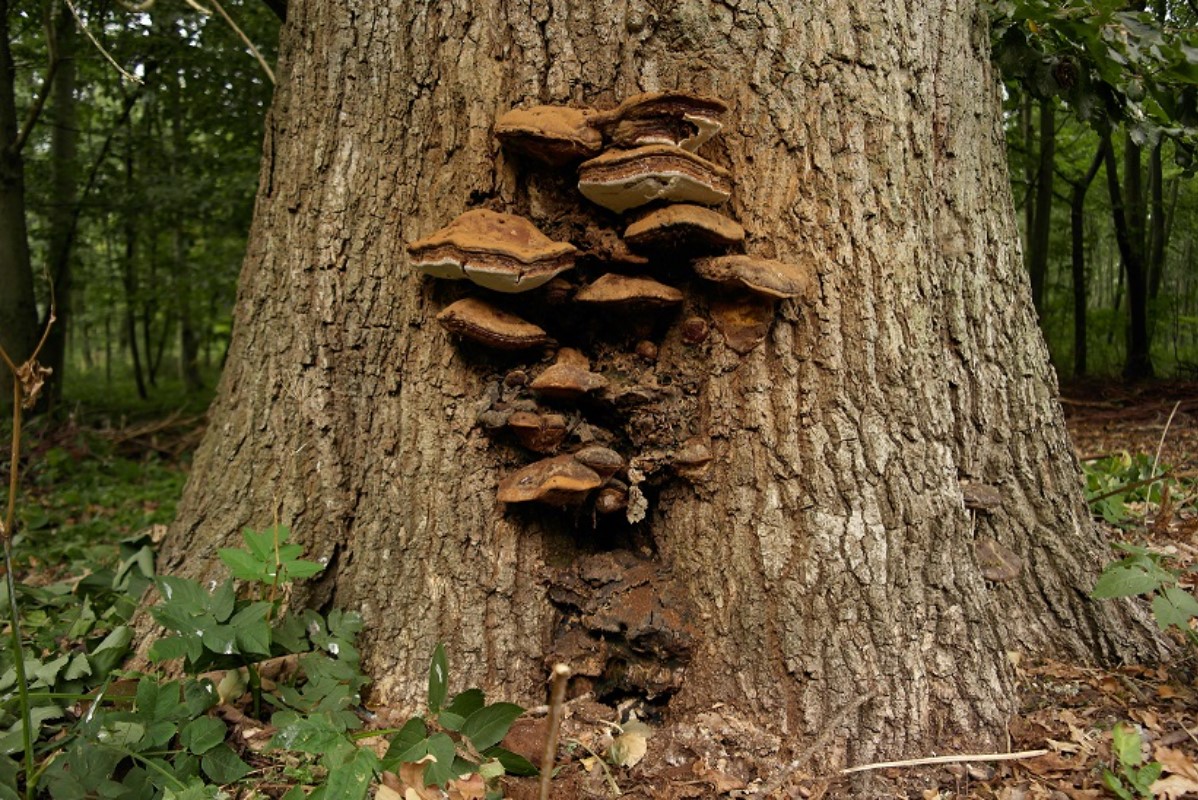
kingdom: Fungi
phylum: Basidiomycota
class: Agaricomycetes
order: Polyporales
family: Polyporaceae
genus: Ganoderma
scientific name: Ganoderma resinaceum
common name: gyldenbrun lakporesvamp
